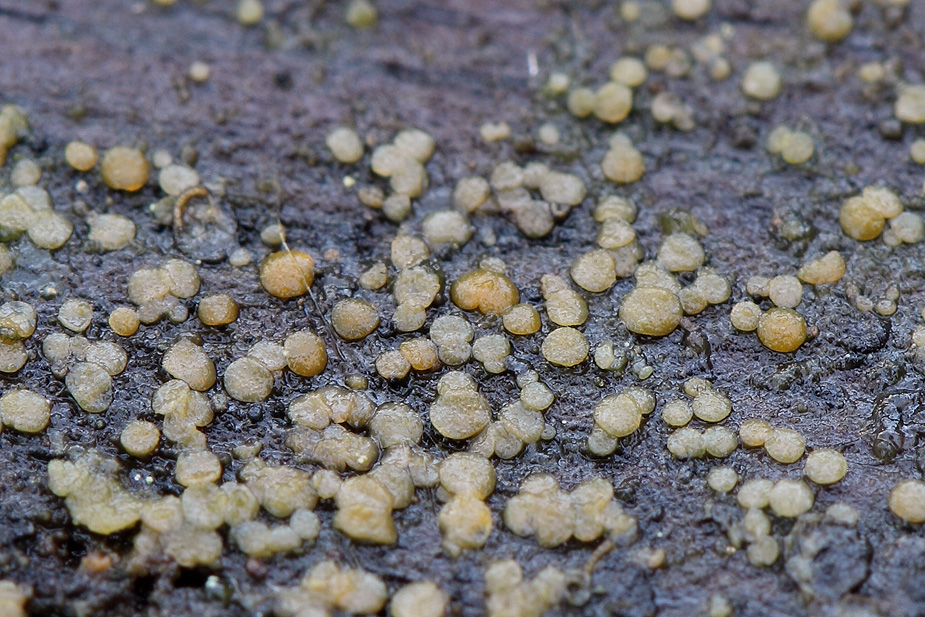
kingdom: Fungi
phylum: Ascomycota
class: Orbiliomycetes
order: Orbiliales
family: Orbiliaceae
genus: Orbilia
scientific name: Orbilia xanthostigma
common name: krumsporet voksskive
